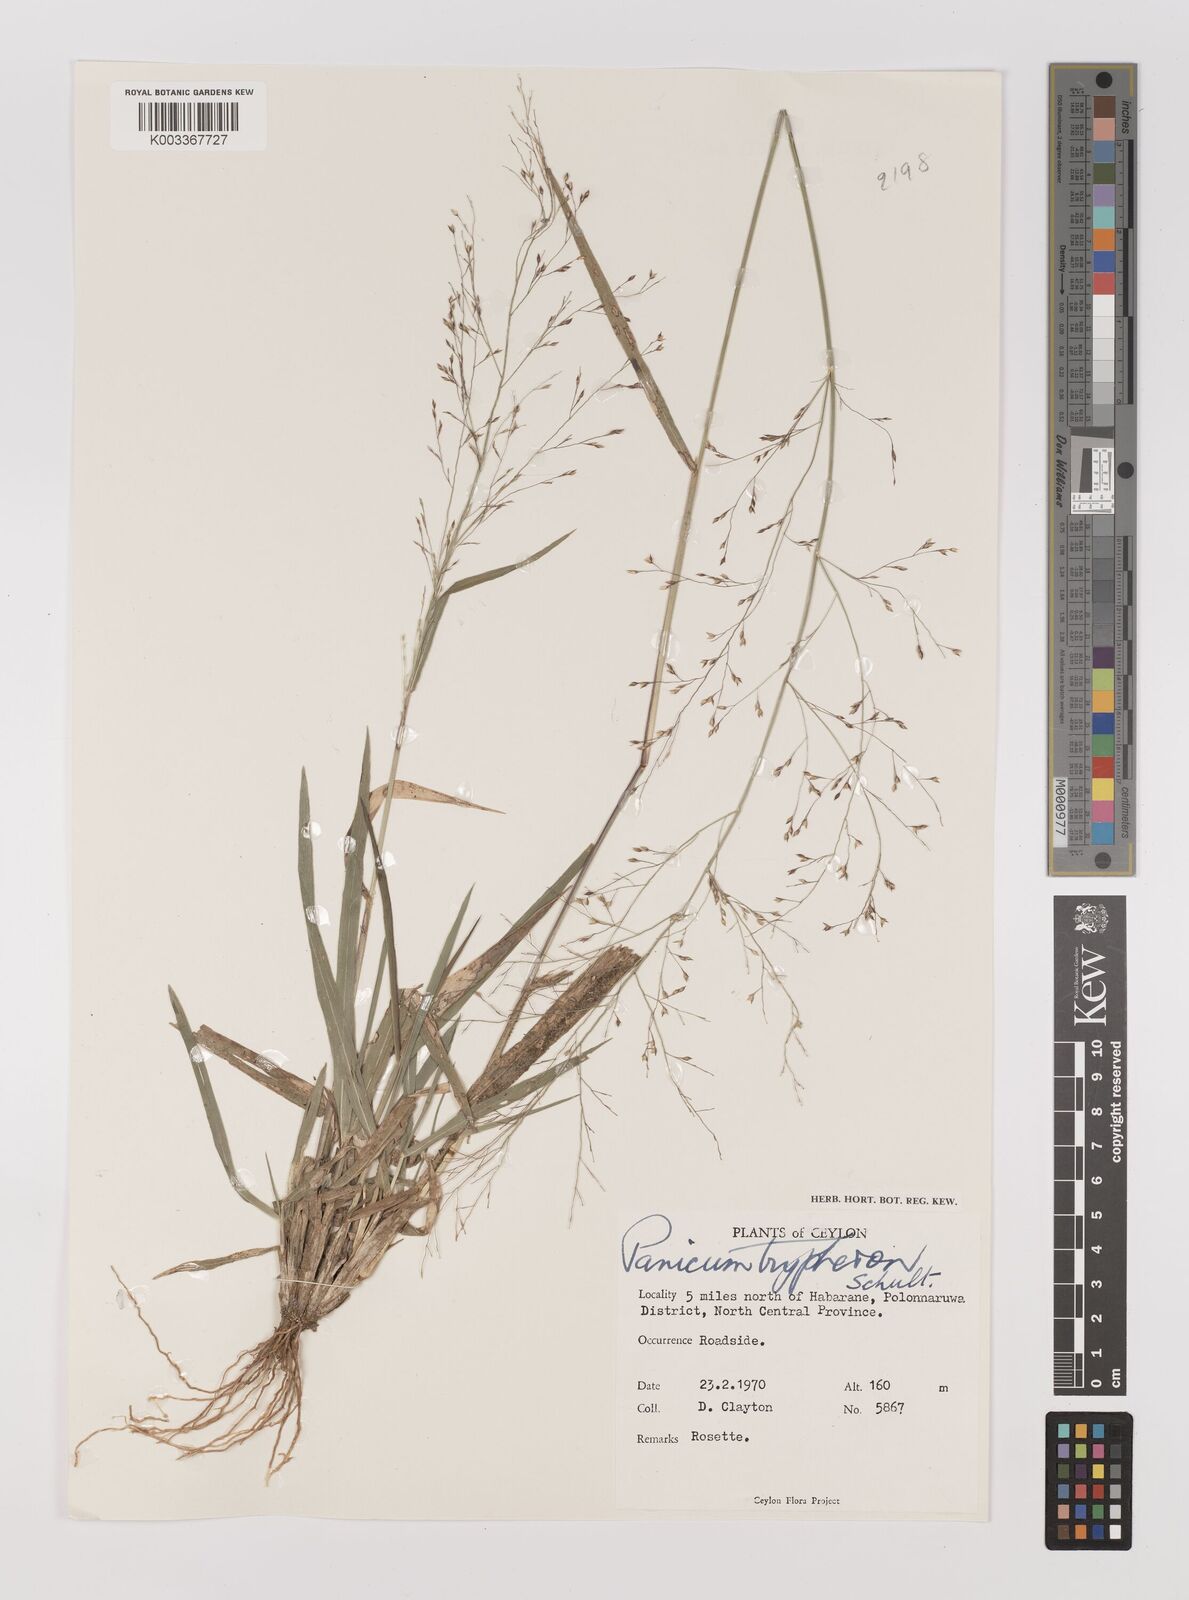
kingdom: Plantae
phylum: Tracheophyta
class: Liliopsida
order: Poales
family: Poaceae
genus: Panicum
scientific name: Panicum curviflorum
